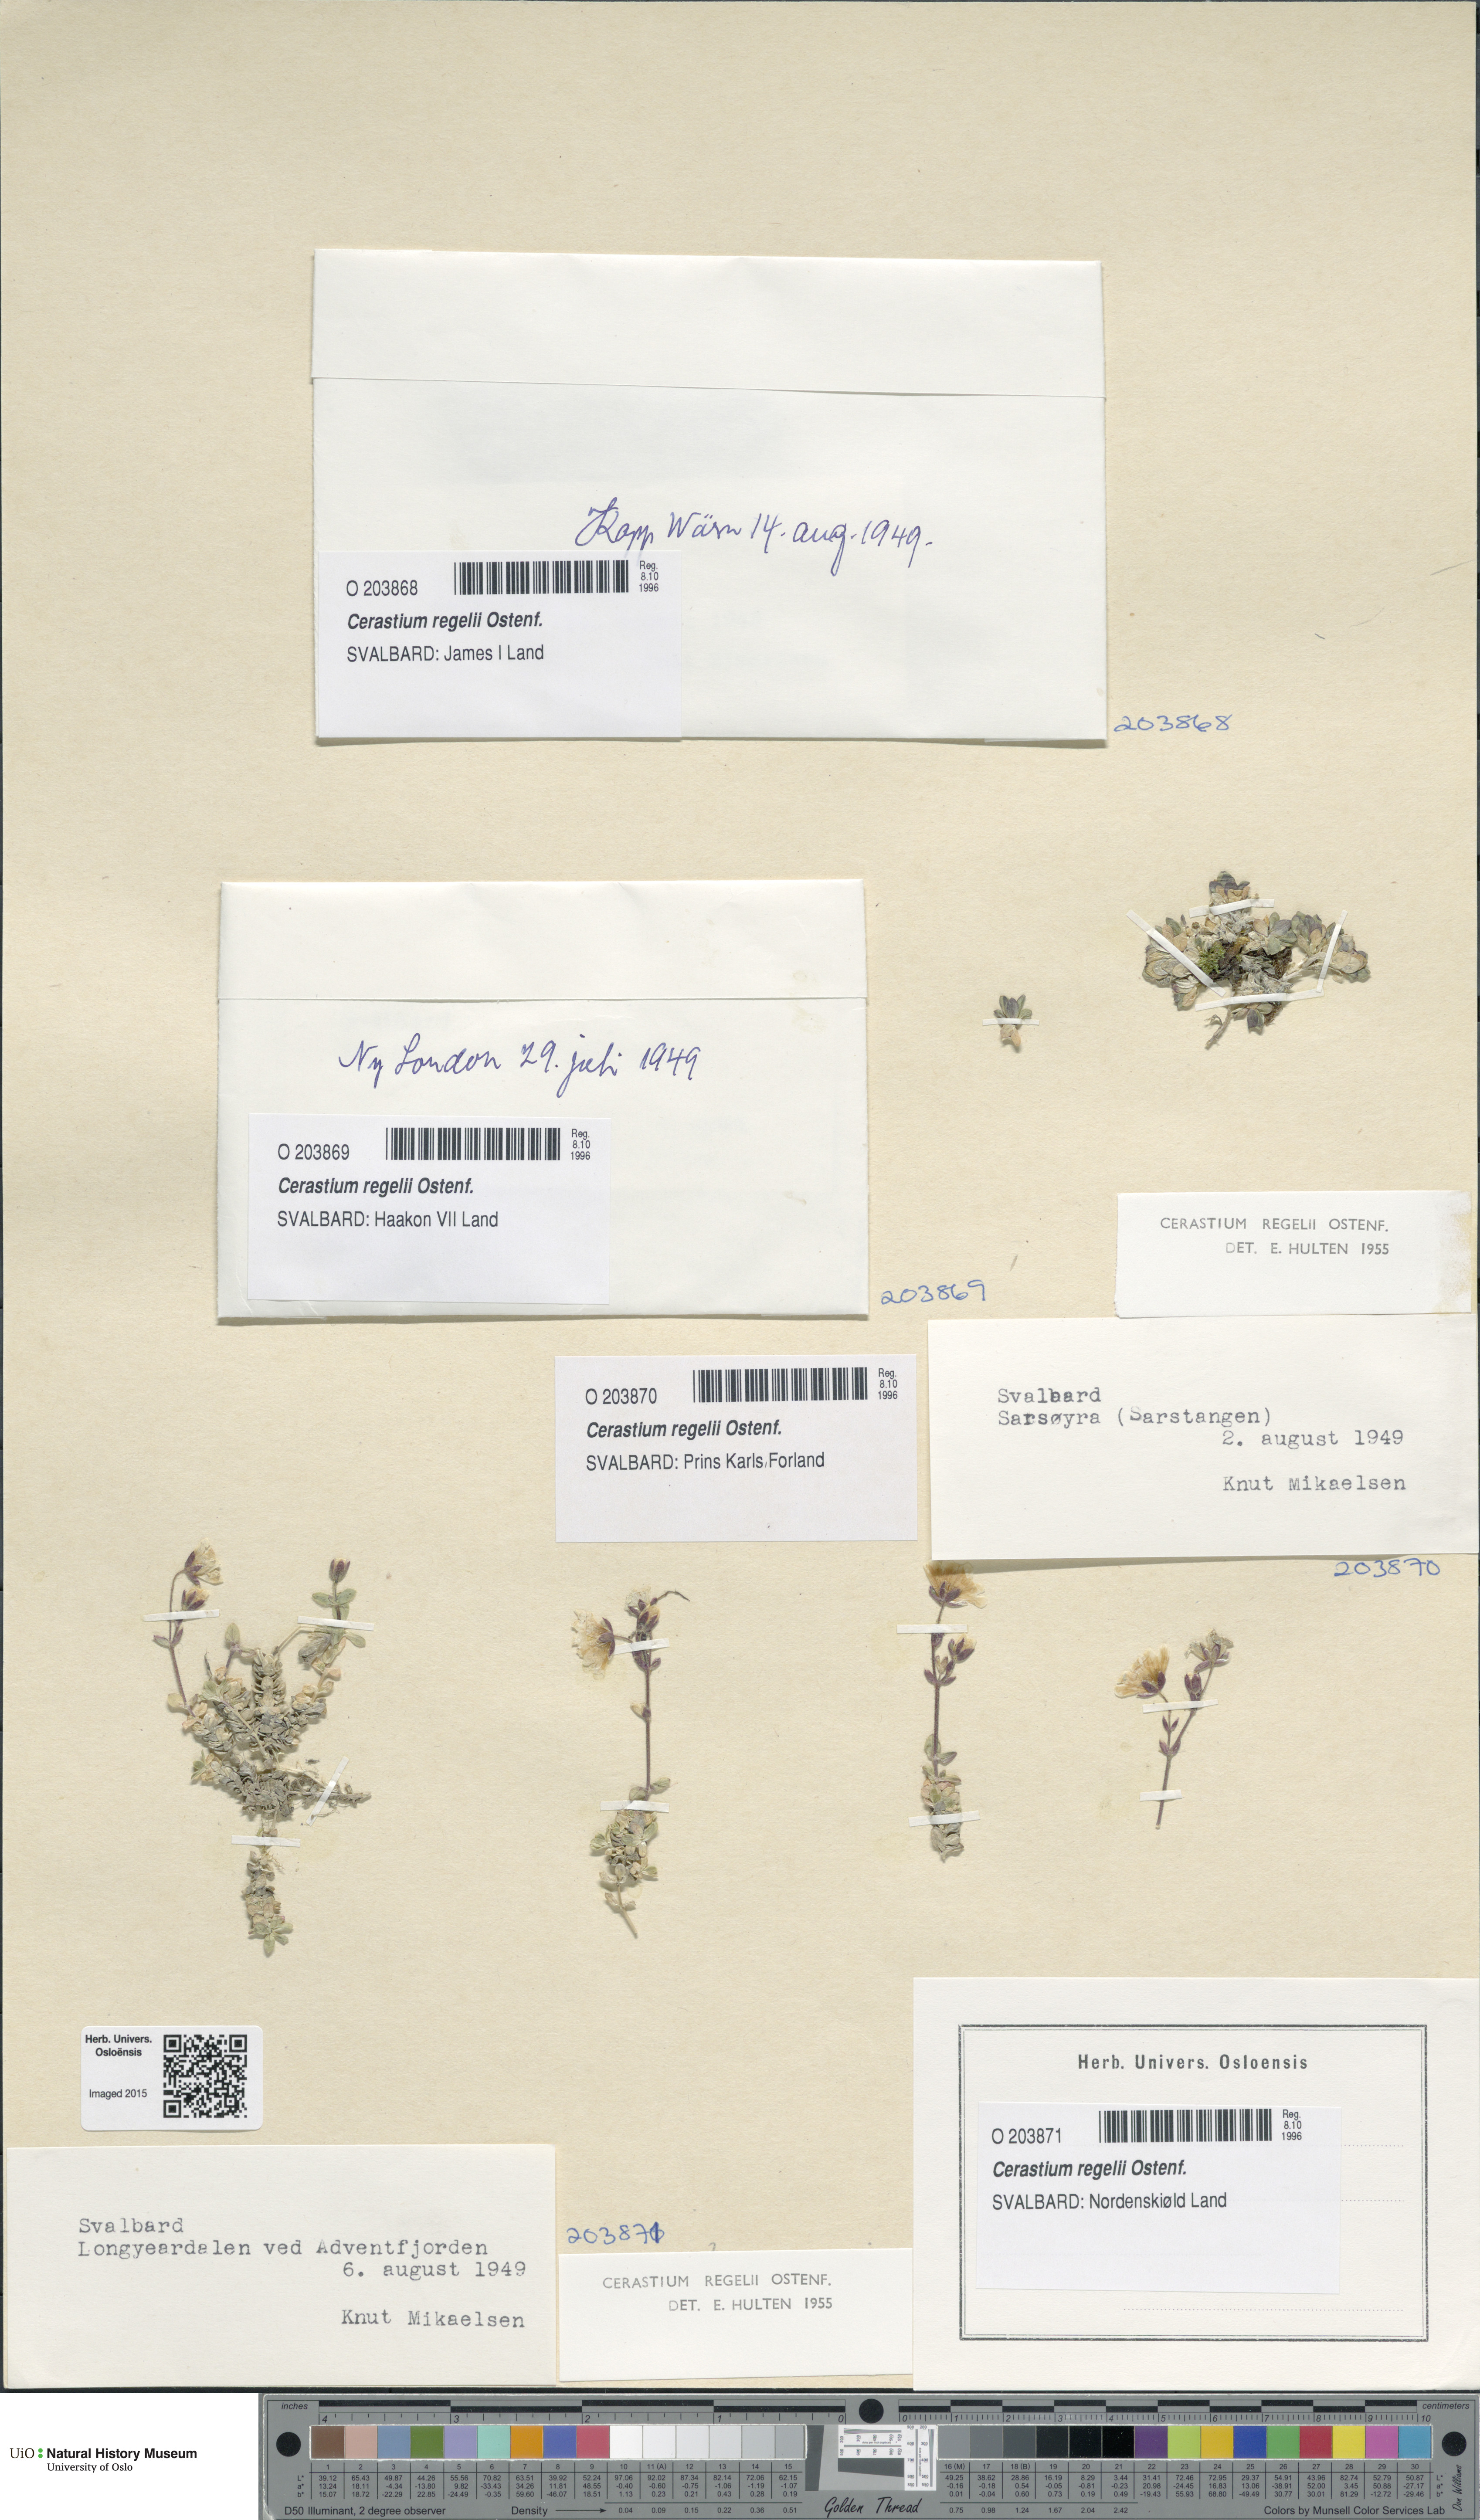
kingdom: Plantae
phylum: Tracheophyta
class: Magnoliopsida
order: Caryophyllales
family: Caryophyllaceae
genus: Cerastium
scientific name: Cerastium regelii
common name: Regel's chickweed
